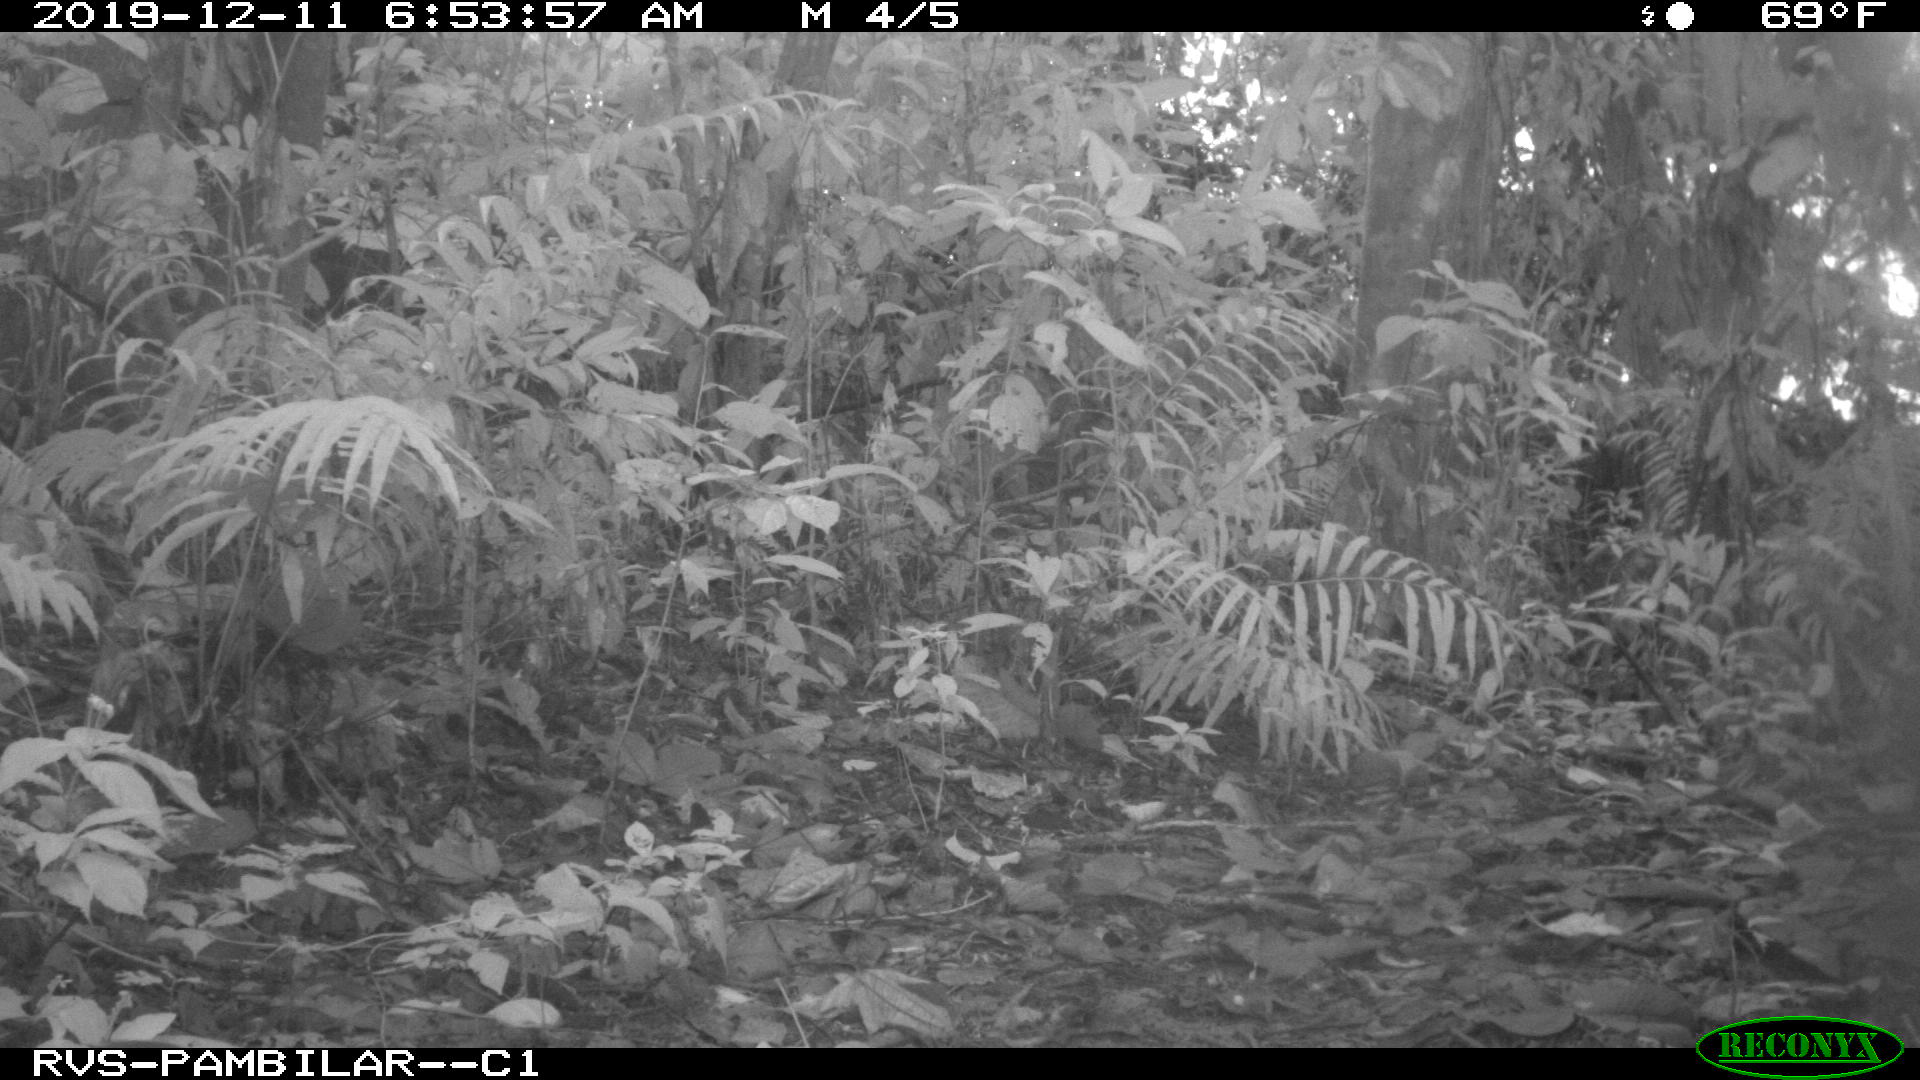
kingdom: Animalia
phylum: Chordata
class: Mammalia
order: Rodentia
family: Dasyproctidae
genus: Dasyprocta
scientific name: Dasyprocta punctata
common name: Central american agouti
